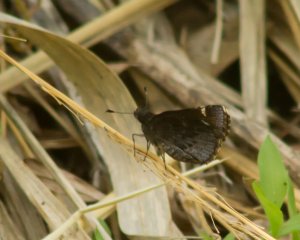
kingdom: Animalia
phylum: Arthropoda
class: Insecta
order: Lepidoptera
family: Hesperiidae
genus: Mastor
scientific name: Mastor vialis
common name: Common Roadside-Skipper
